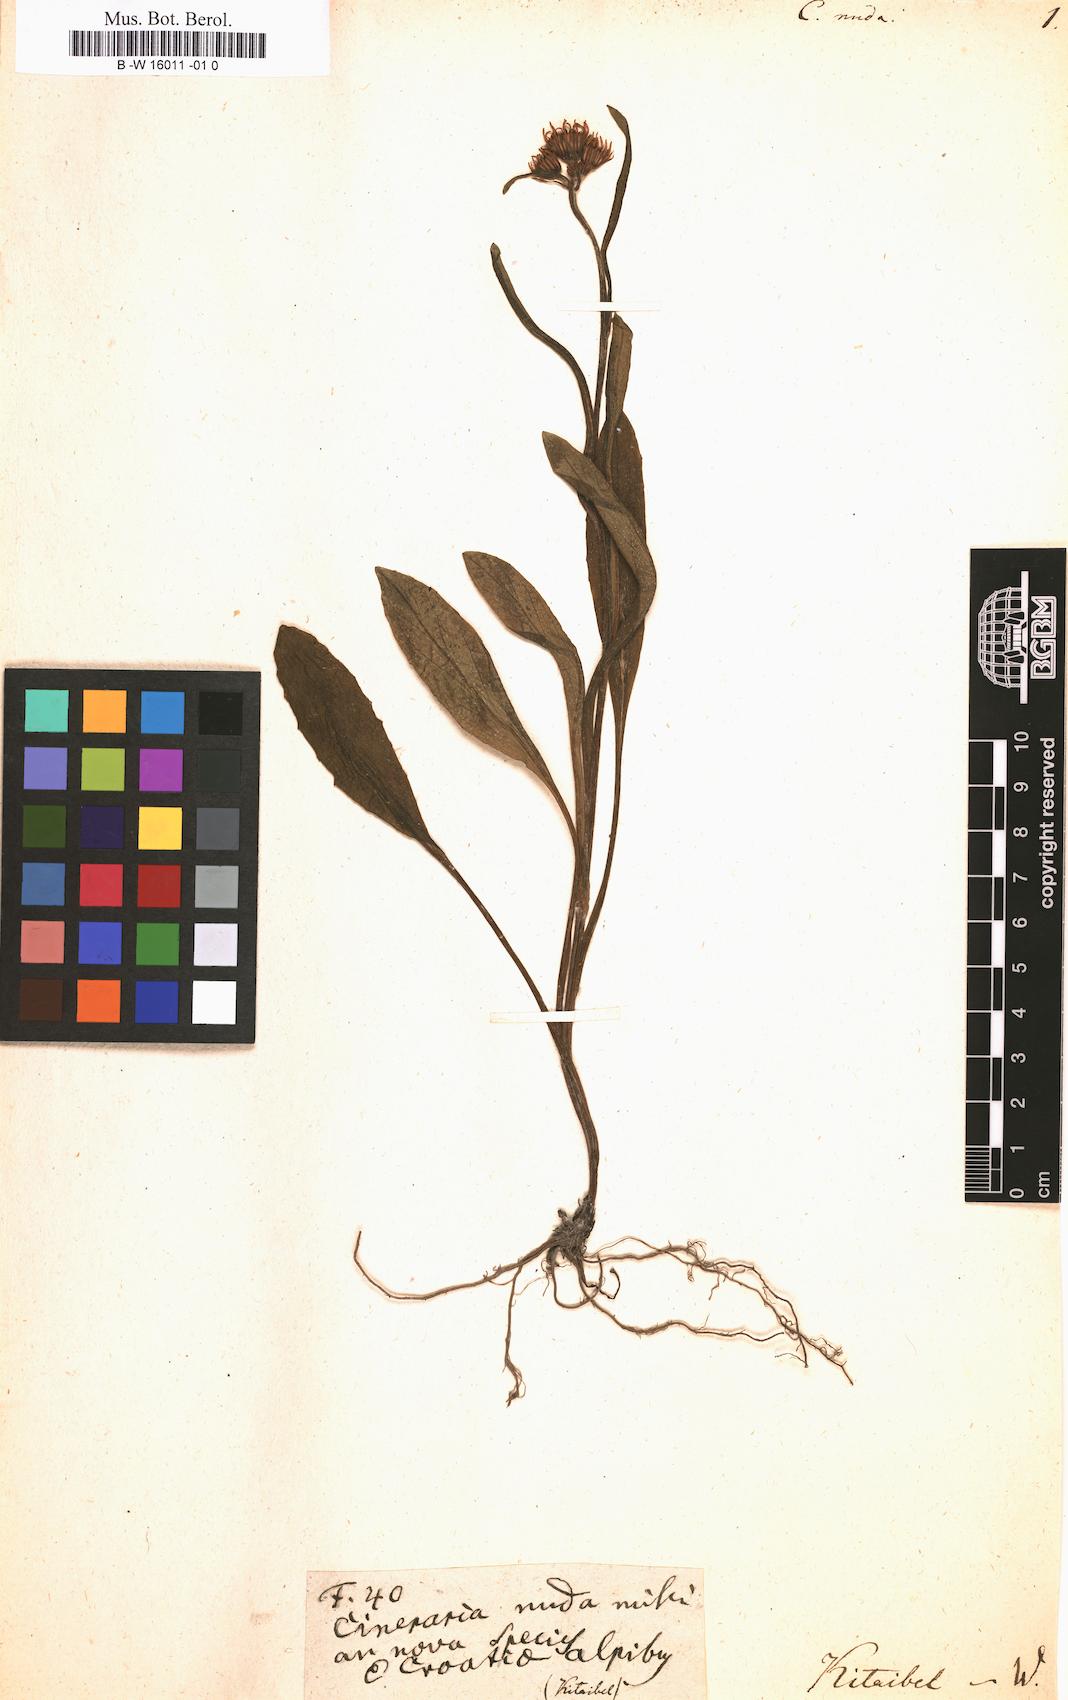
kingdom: Plantae
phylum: Tracheophyta
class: Magnoliopsida
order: Asterales
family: Asteraceae
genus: Tephroseris
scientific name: Tephroseris longifolia
